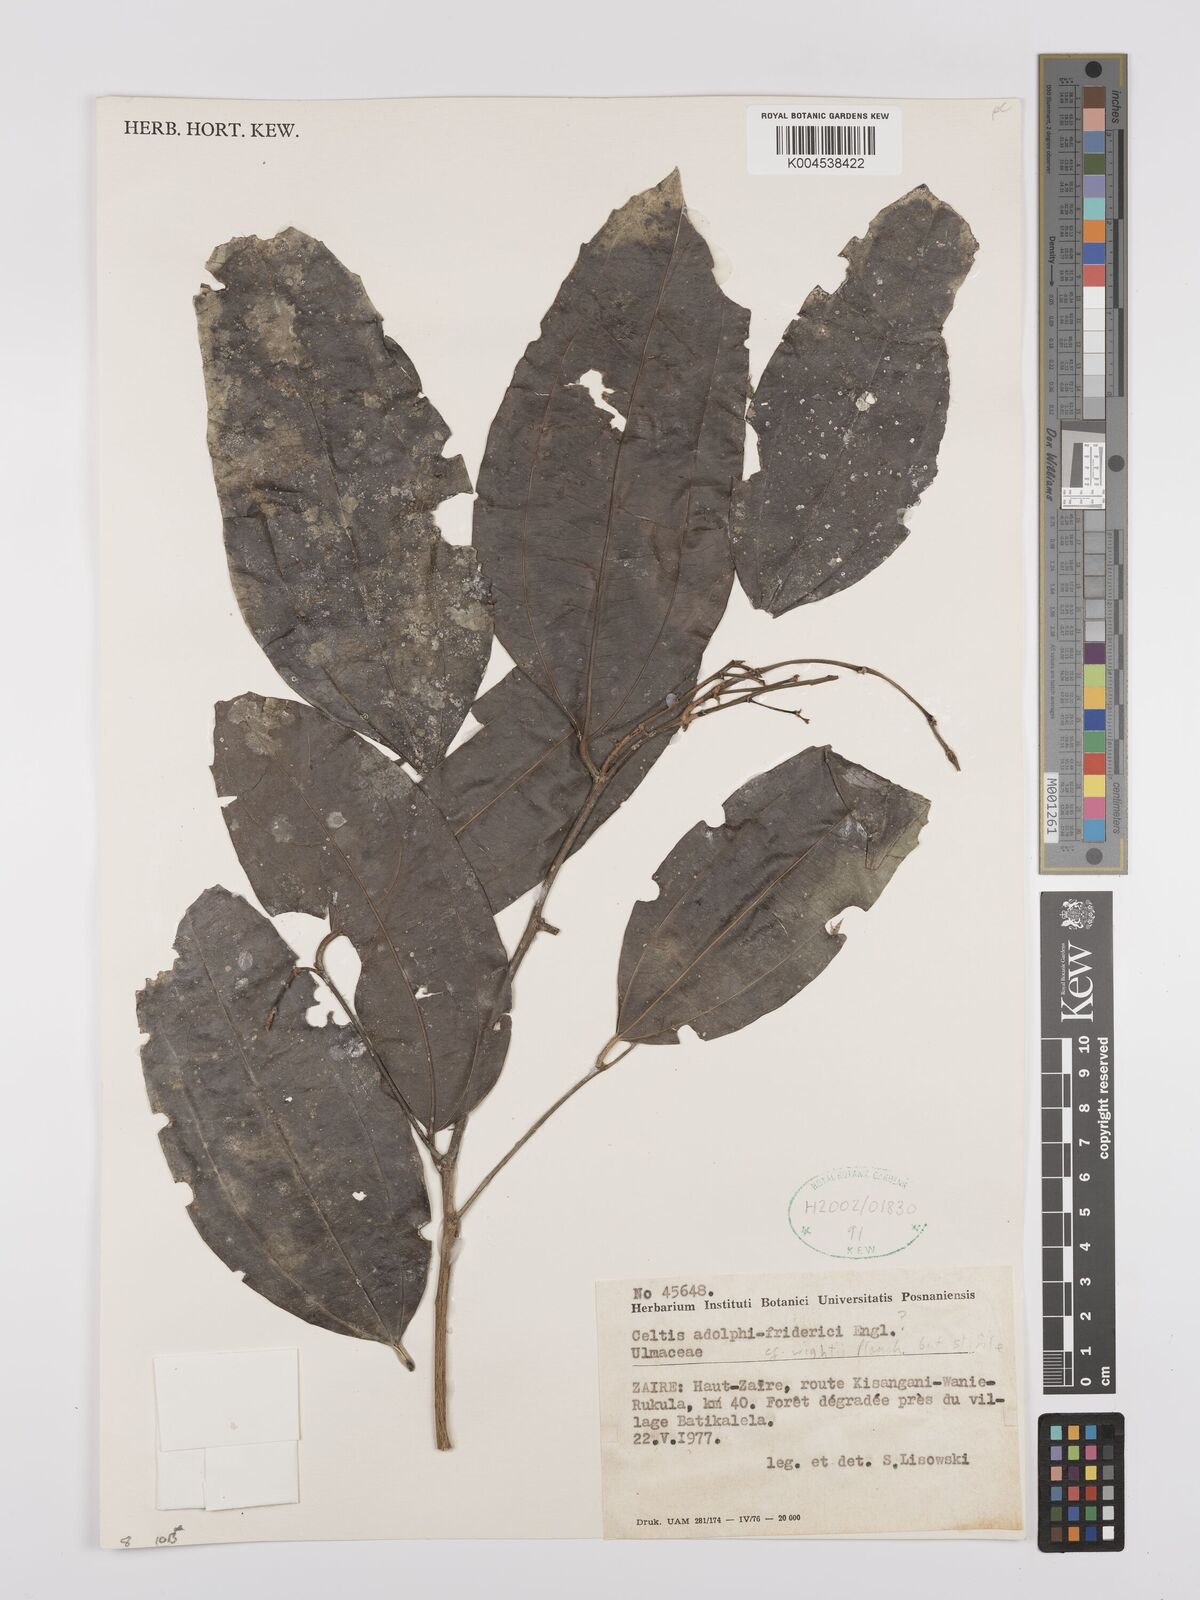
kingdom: Plantae
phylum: Tracheophyta
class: Magnoliopsida
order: Rosales
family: Cannabaceae
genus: Celtis
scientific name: Celtis adolfi-friderici
